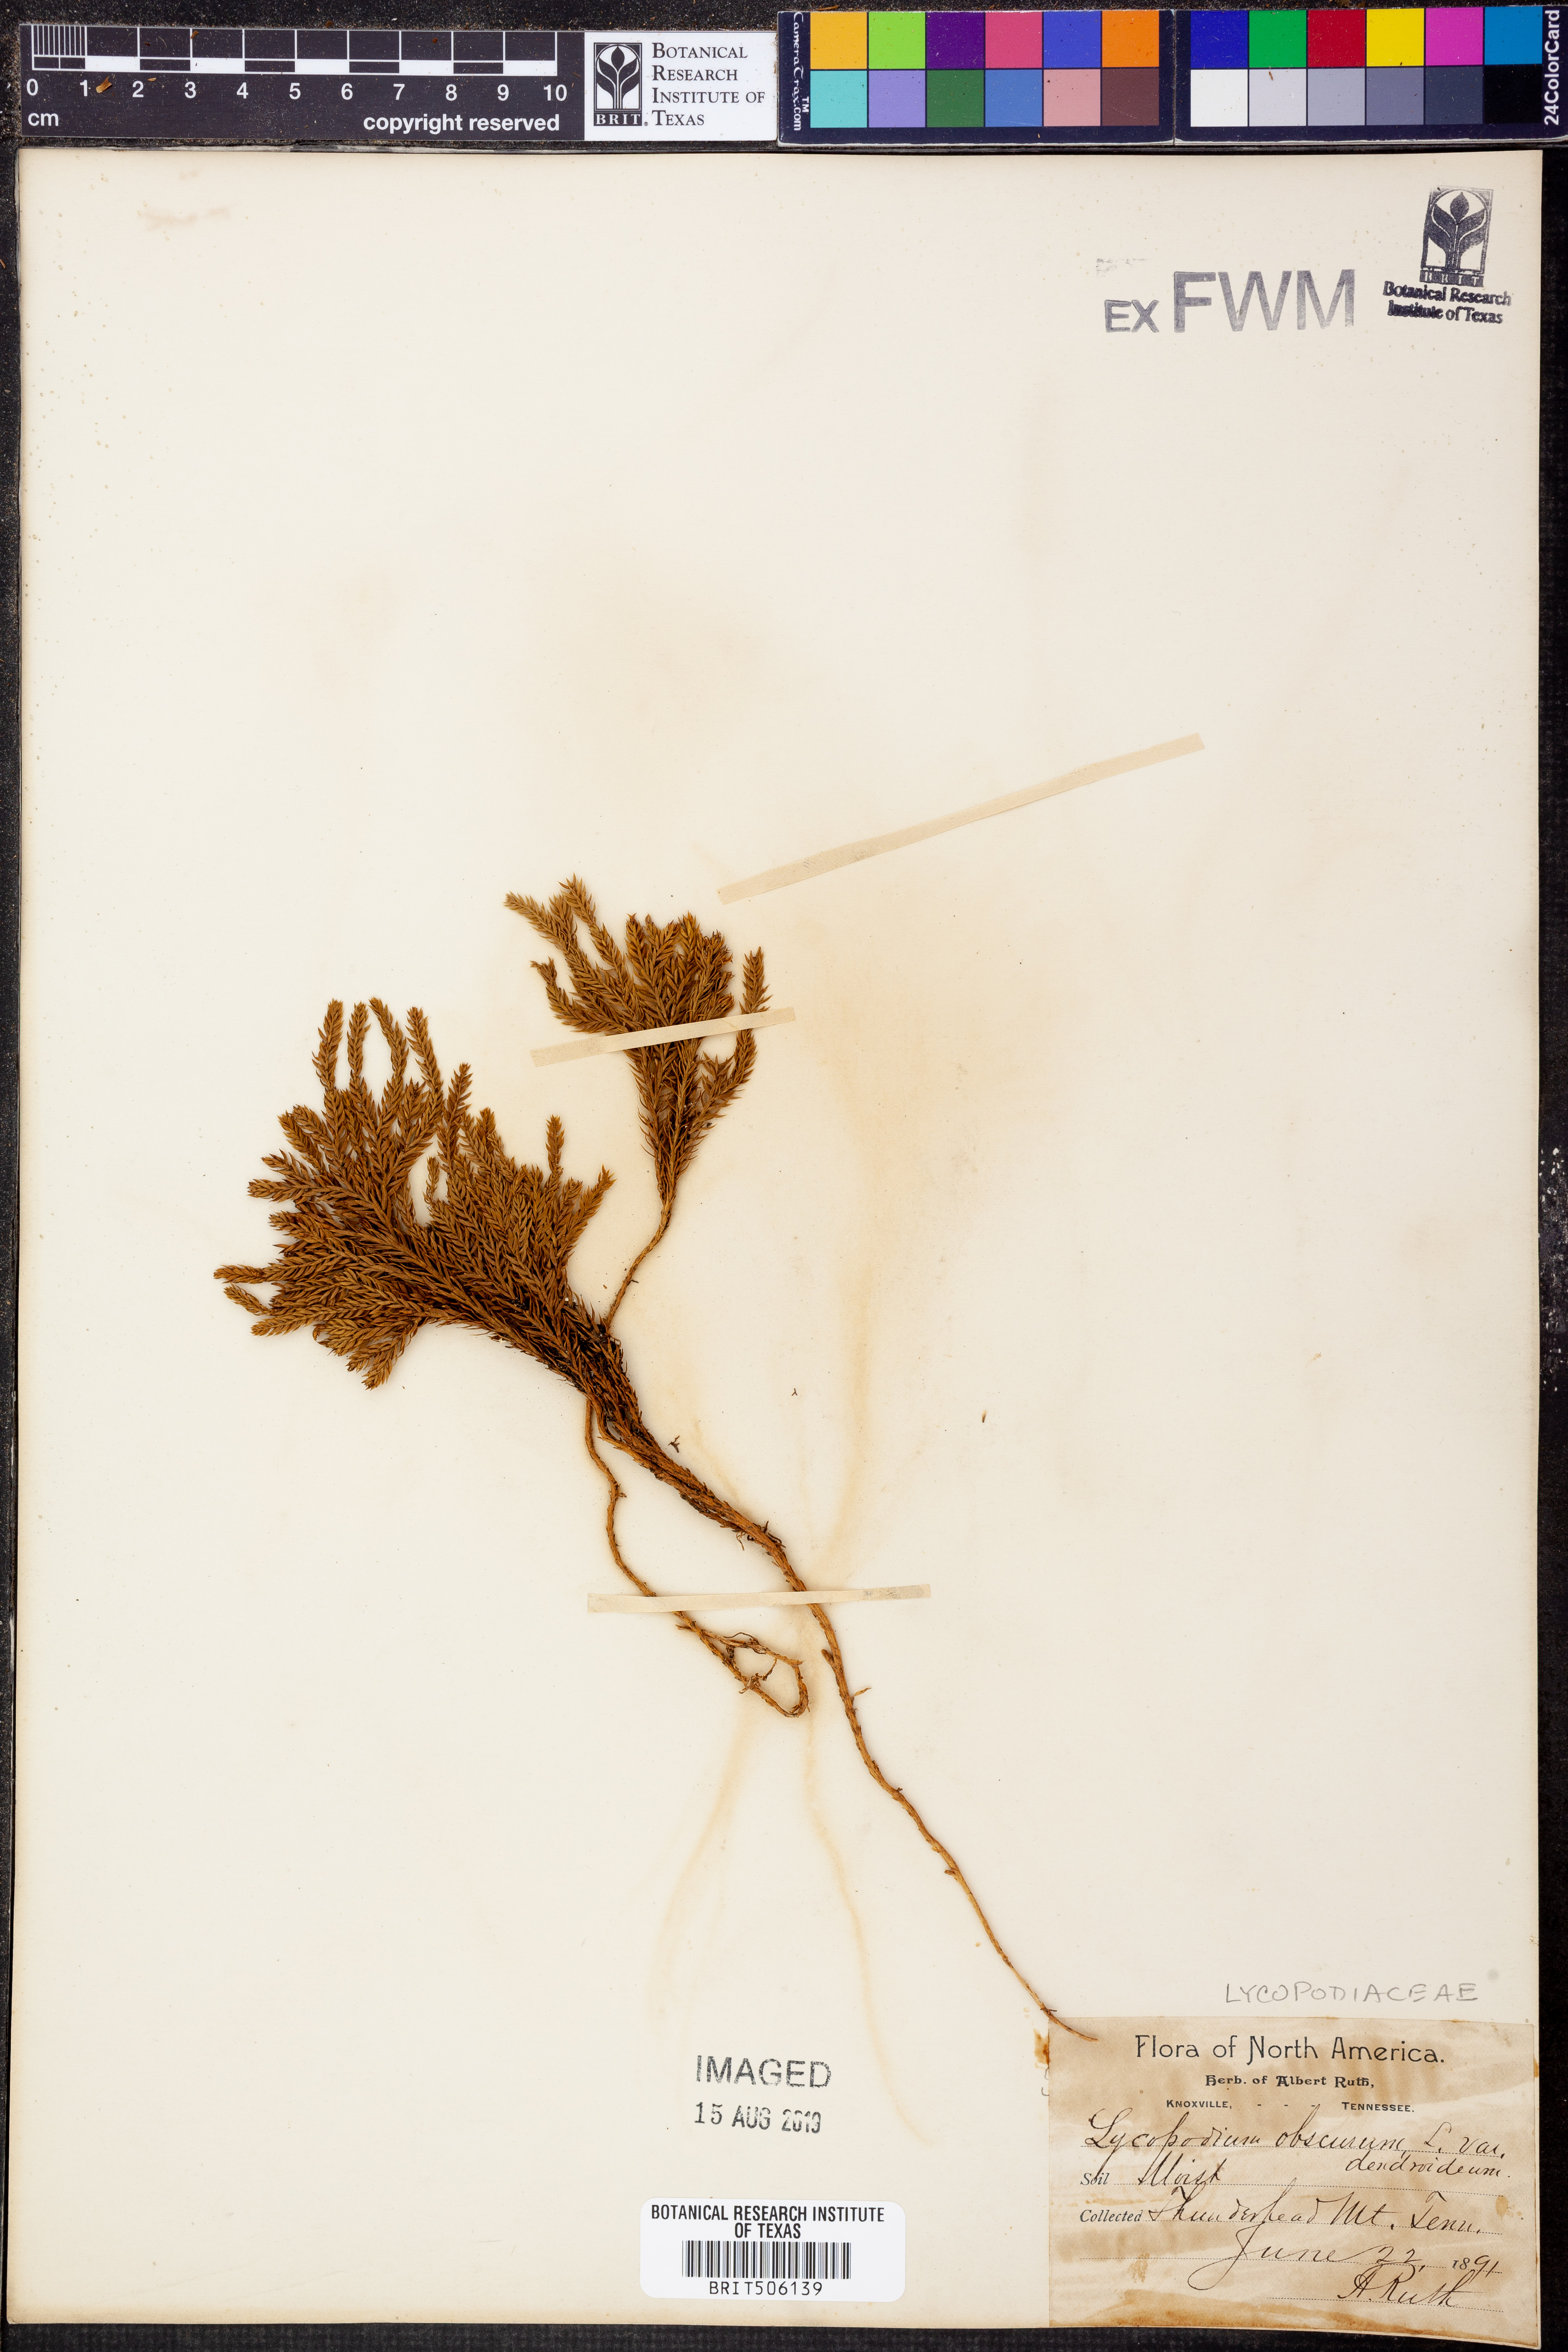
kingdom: Plantae
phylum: Tracheophyta
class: Lycopodiopsida
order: Lycopodiales
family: Lycopodiaceae
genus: Dendrolycopodium
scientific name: Dendrolycopodium dendroideum
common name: Northern tree-clubmoss
